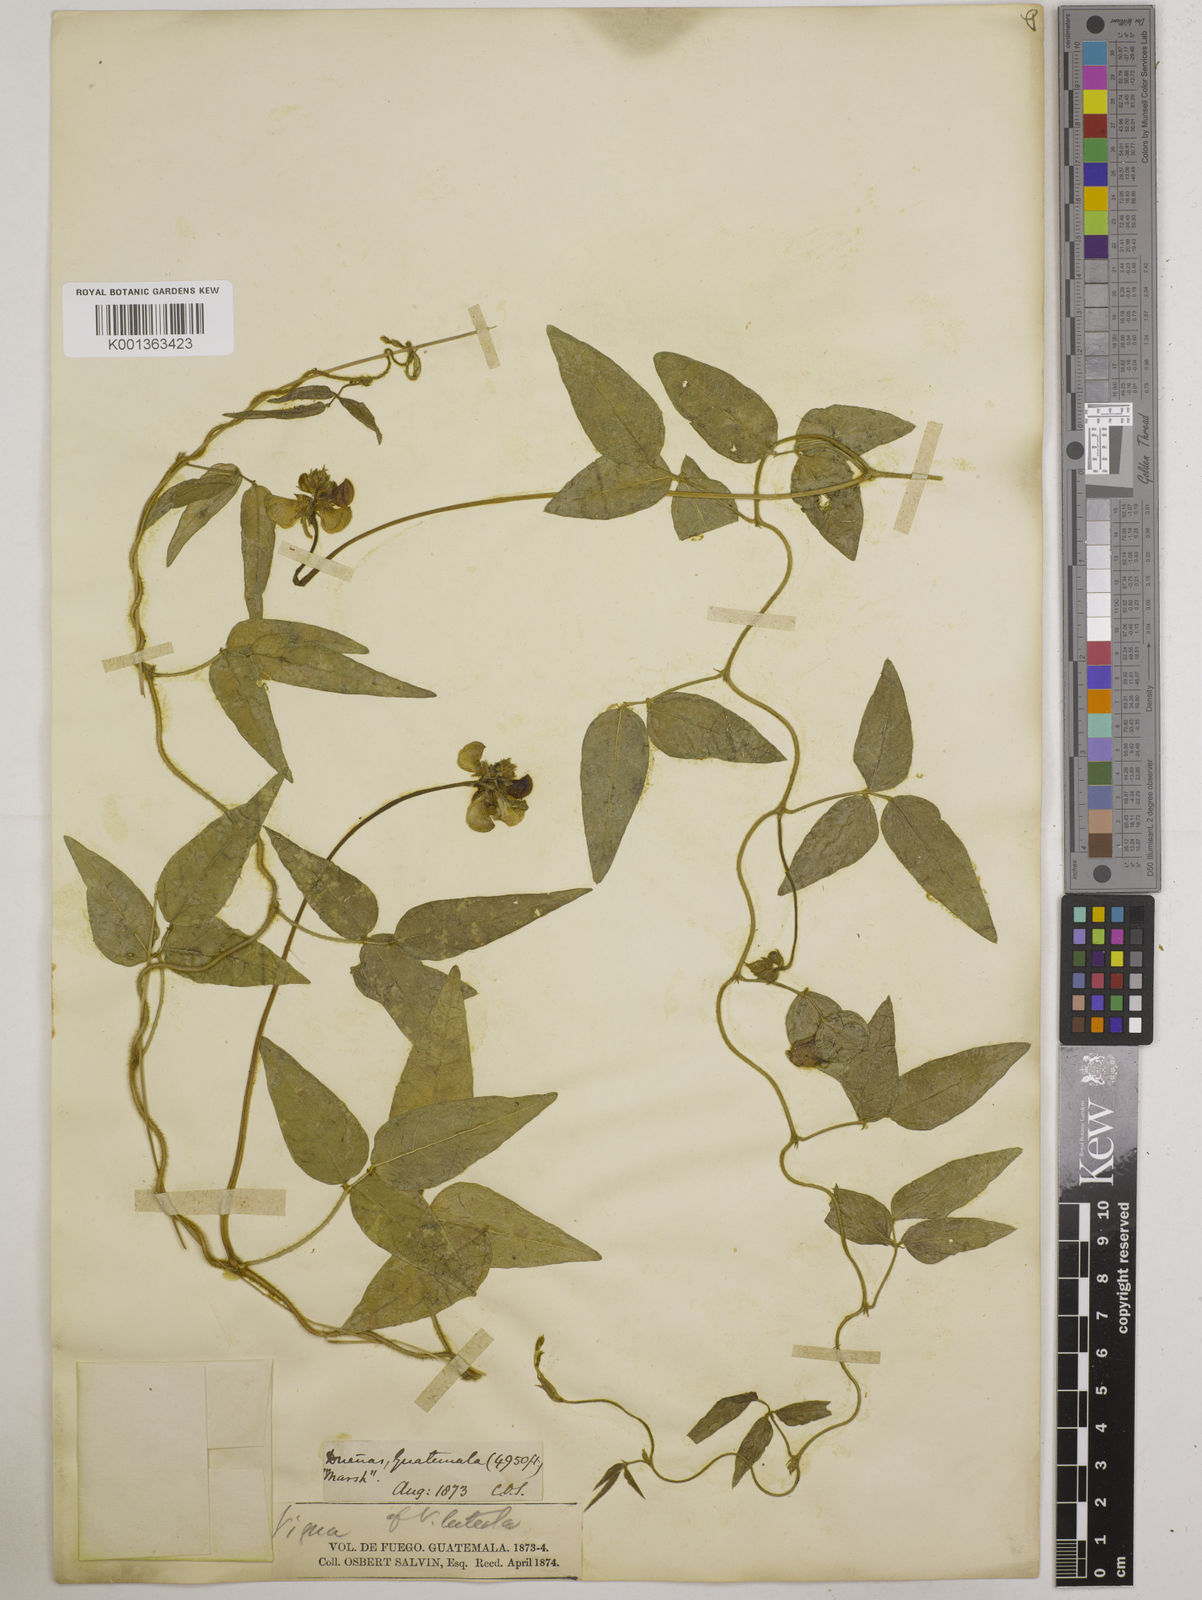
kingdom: Plantae
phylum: Tracheophyta
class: Magnoliopsida
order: Fabales
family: Fabaceae
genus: Vigna
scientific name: Vigna luteola
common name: Hairypod cowpea
